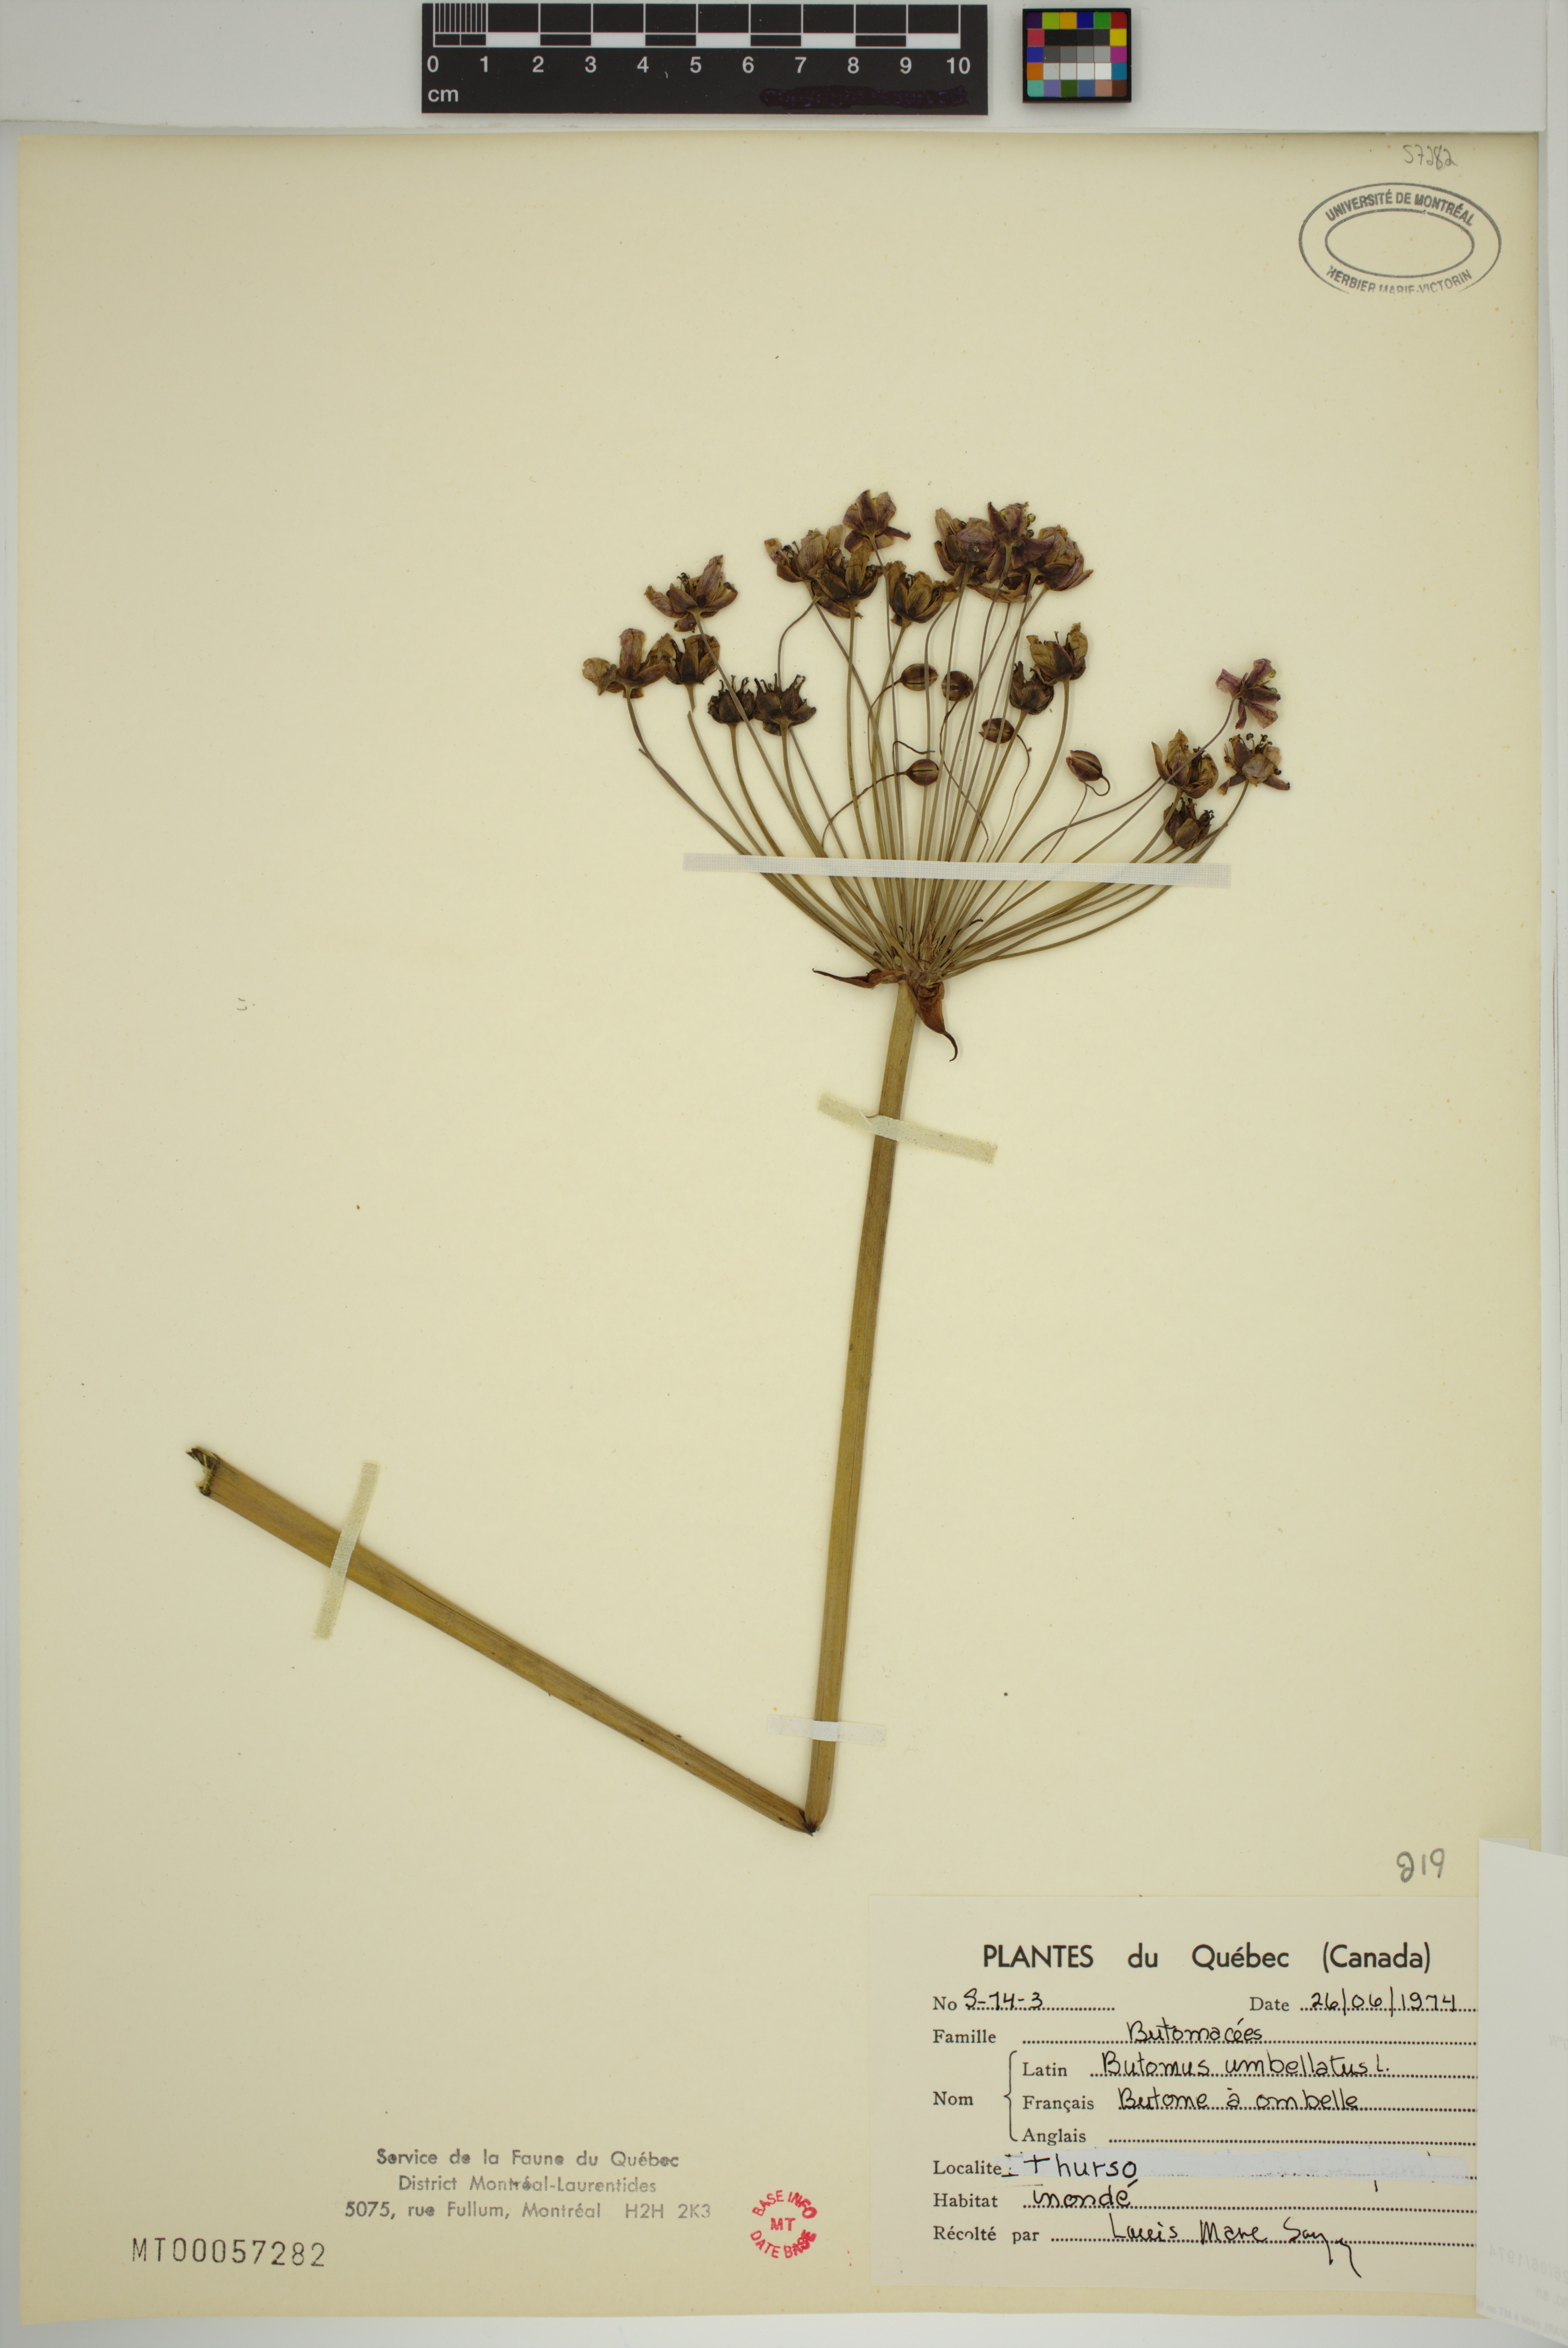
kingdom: Plantae
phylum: Tracheophyta
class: Liliopsida
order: Alismatales
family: Butomaceae
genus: Butomus
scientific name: Butomus umbellatus
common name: Flowering-rush
